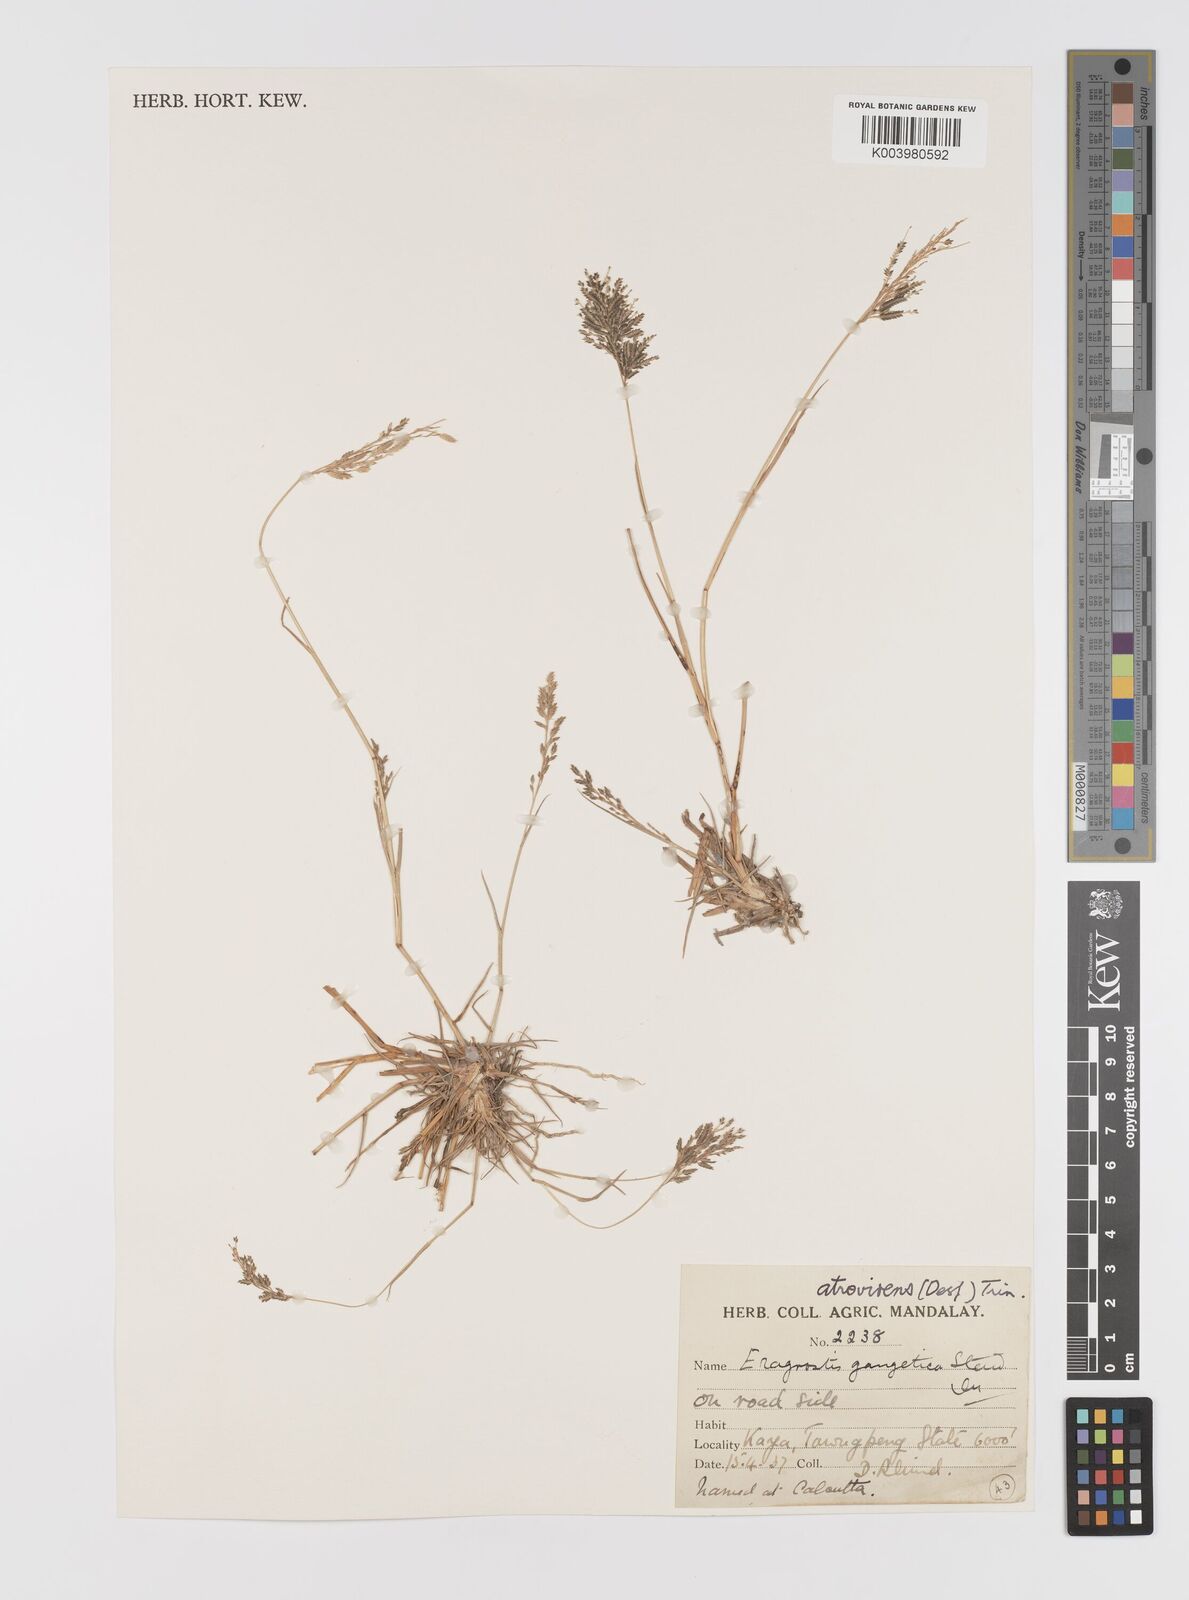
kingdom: Plantae
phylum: Tracheophyta
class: Liliopsida
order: Poales
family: Poaceae
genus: Eragrostis
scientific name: Eragrostis atrovirens
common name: Thalia lovegrass
